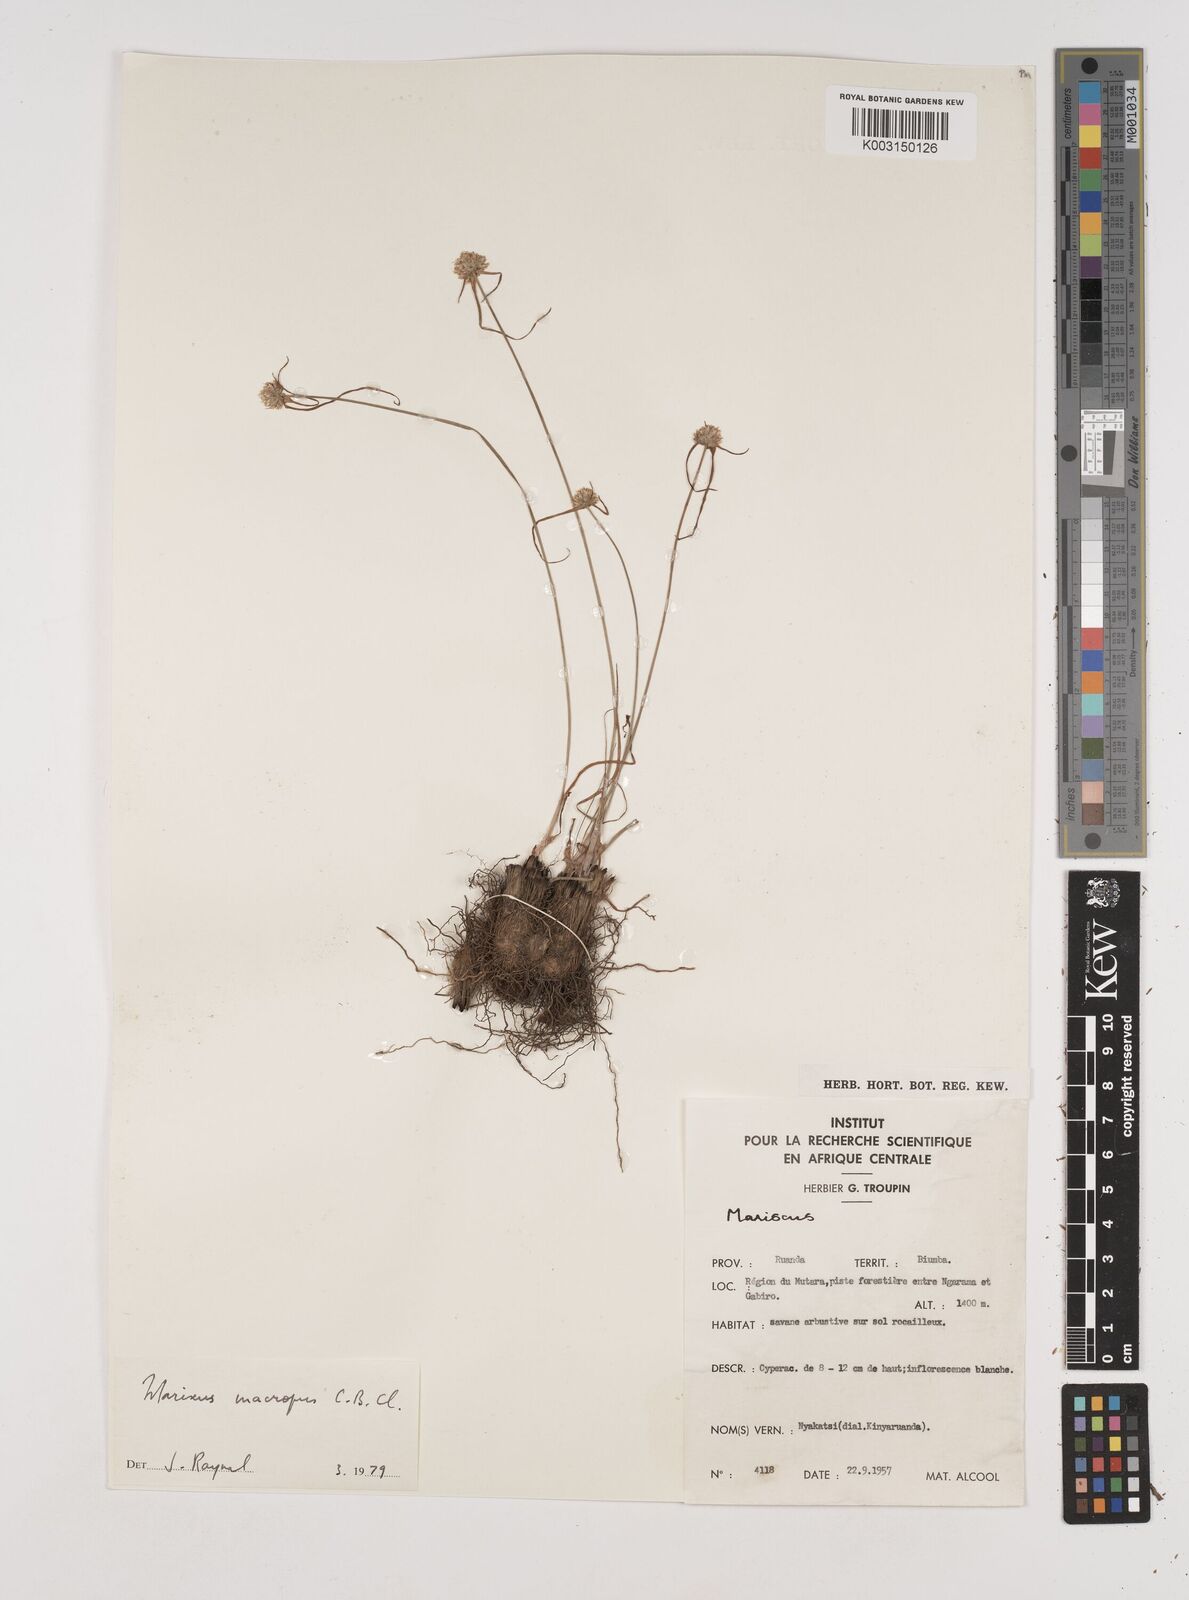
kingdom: Plantae
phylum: Tracheophyta
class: Liliopsida
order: Poales
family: Cyperaceae
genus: Cyperus
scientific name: Cyperus mollipes
